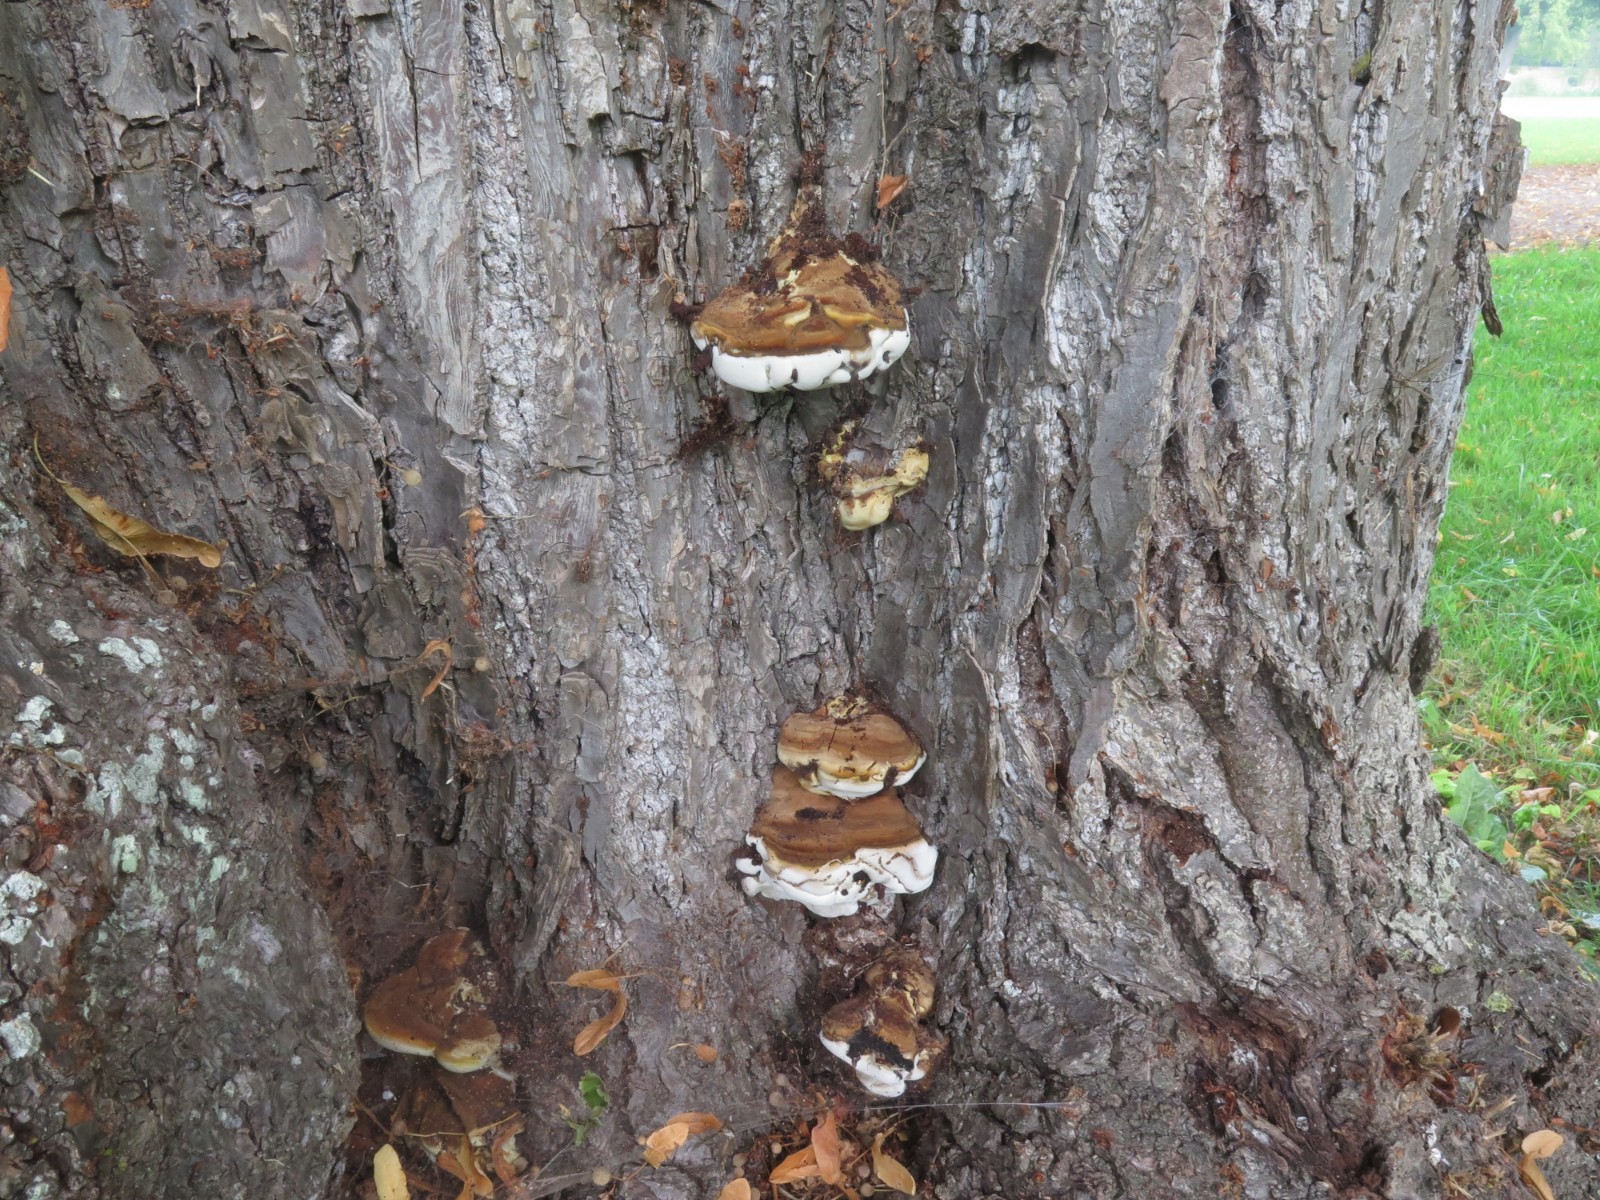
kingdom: Fungi
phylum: Basidiomycota
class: Agaricomycetes
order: Polyporales
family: Polyporaceae
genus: Ganoderma
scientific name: Ganoderma adspersum
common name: grov lakporesvamp
